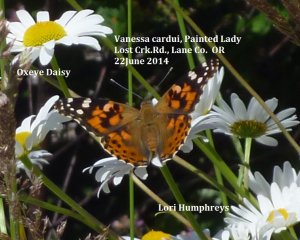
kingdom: Animalia
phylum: Arthropoda
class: Insecta
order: Lepidoptera
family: Nymphalidae
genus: Vanessa
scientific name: Vanessa cardui
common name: Painted Lady
